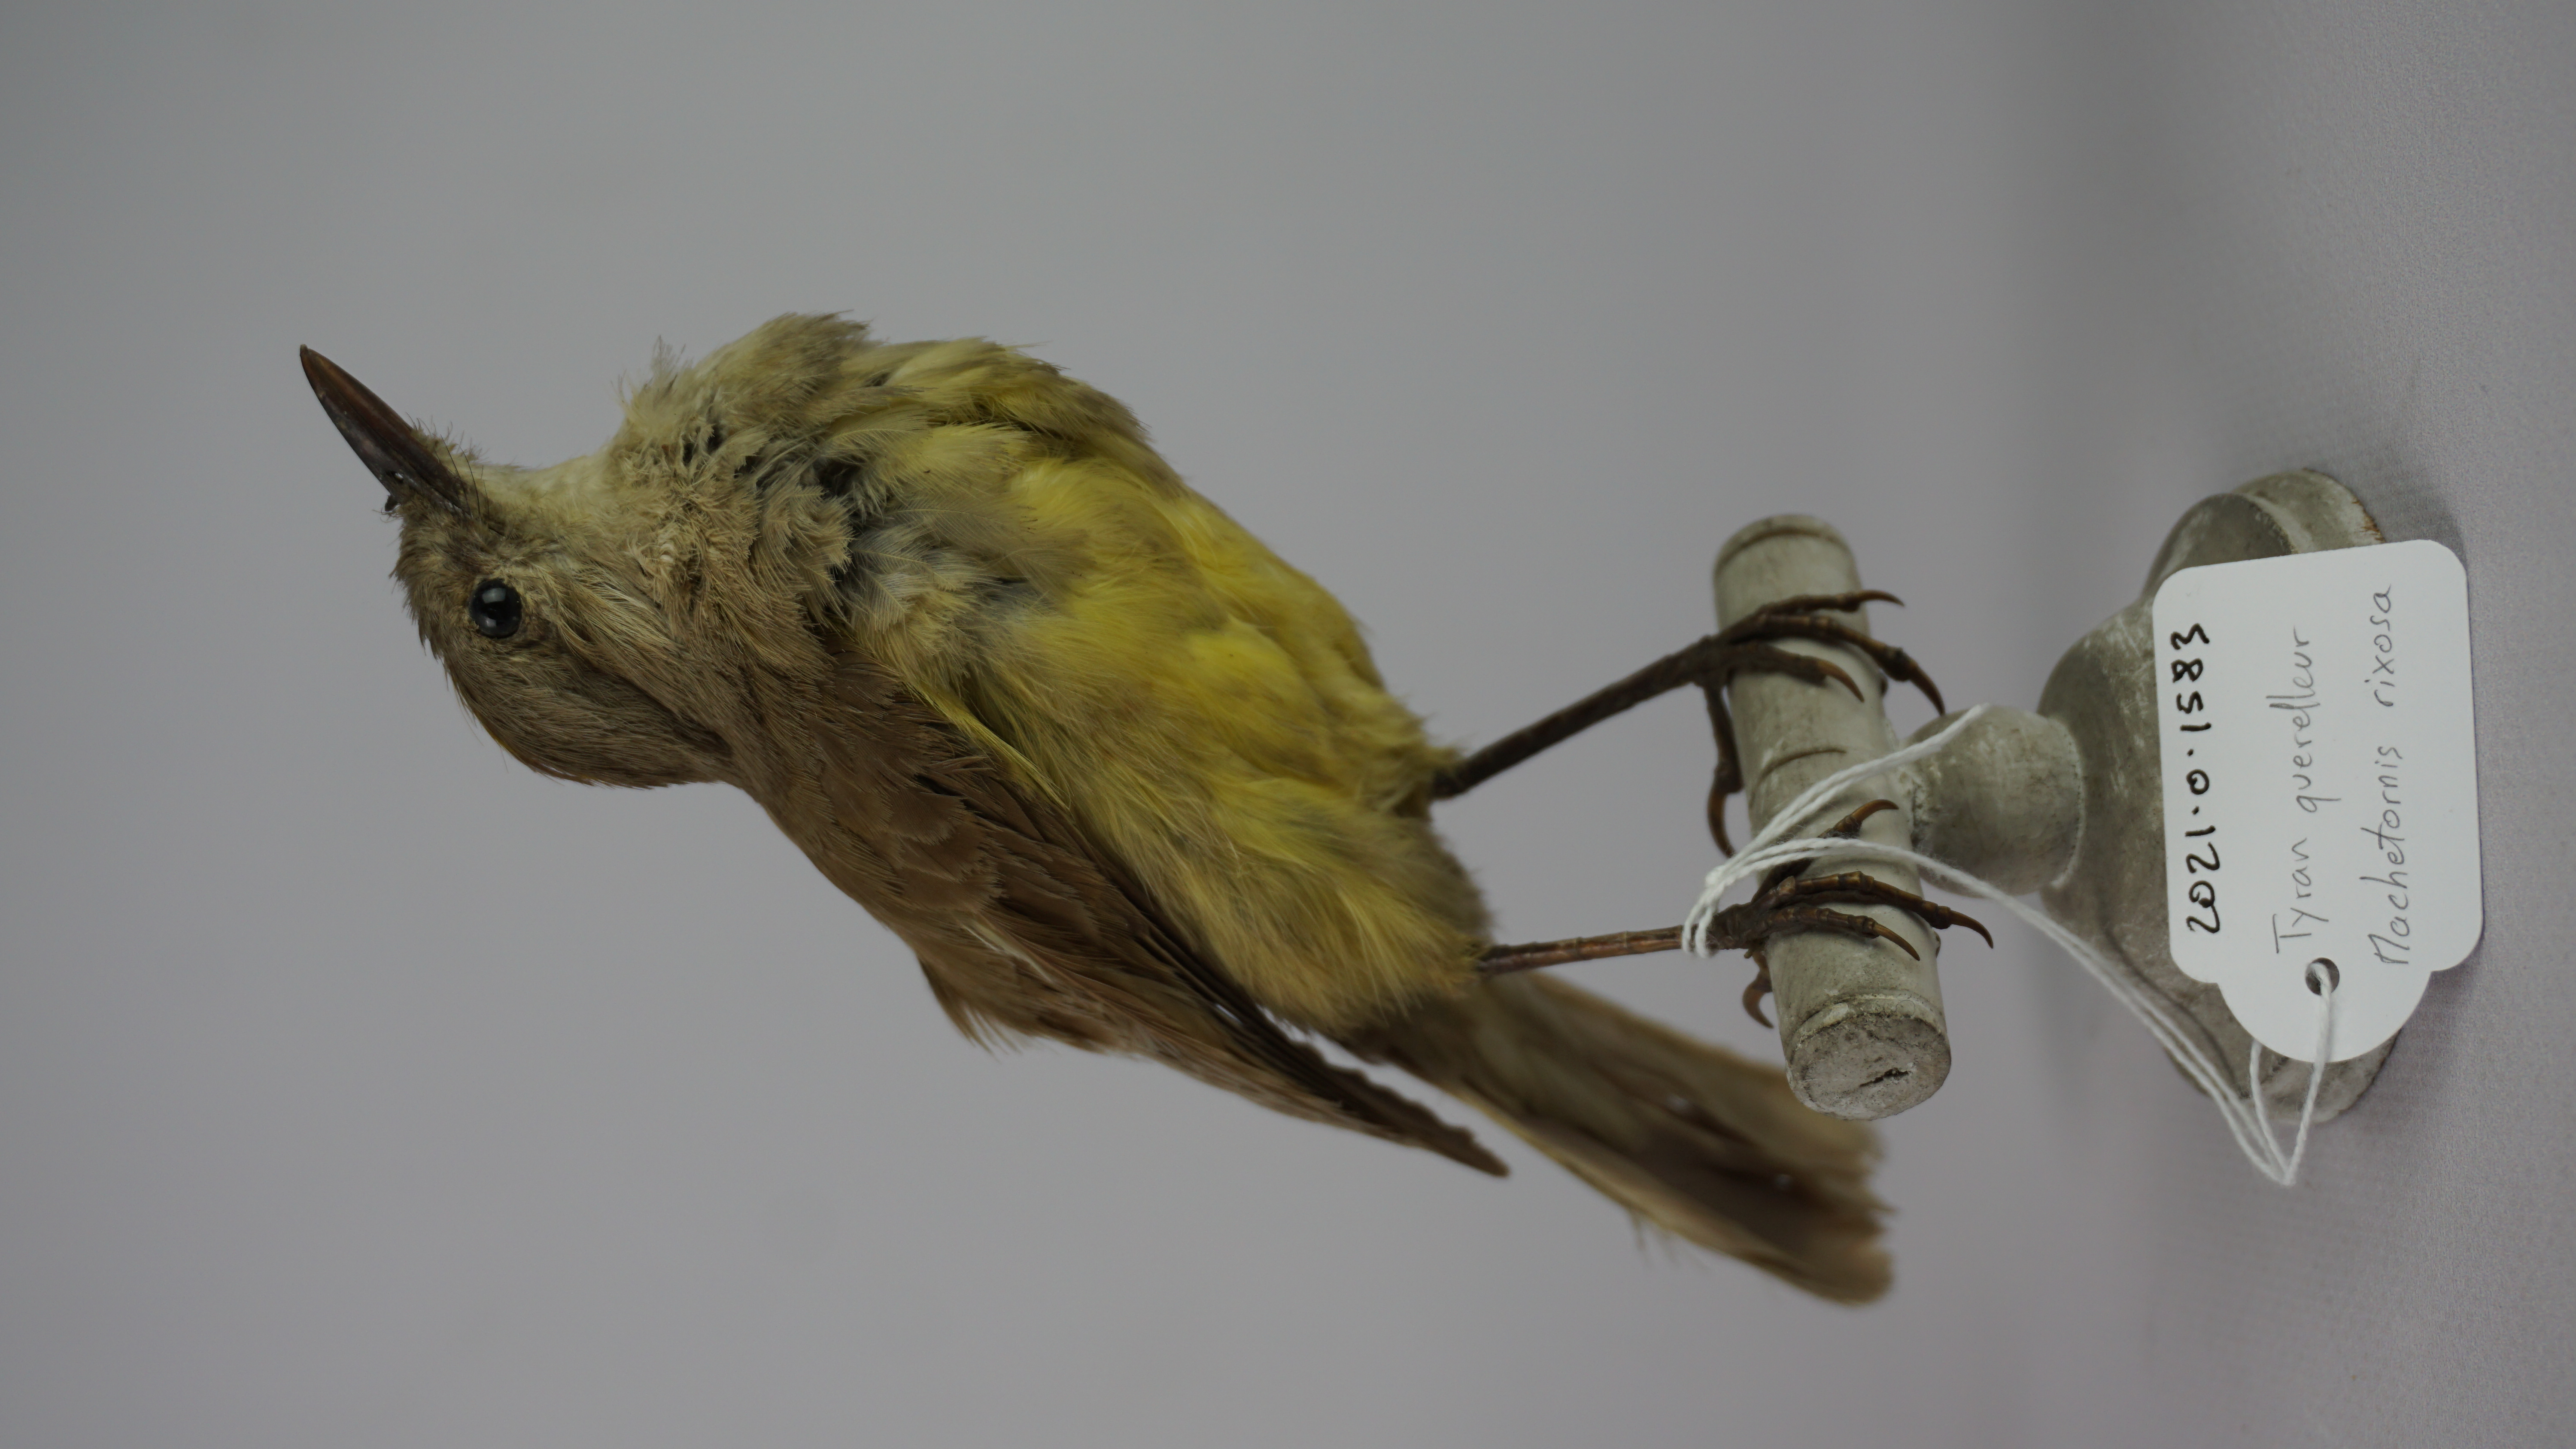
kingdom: Animalia
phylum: Chordata
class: Aves
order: Passeriformes
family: Tyrannidae
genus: Machetornis
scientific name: Machetornis rixosa
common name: Cattle tyrant
